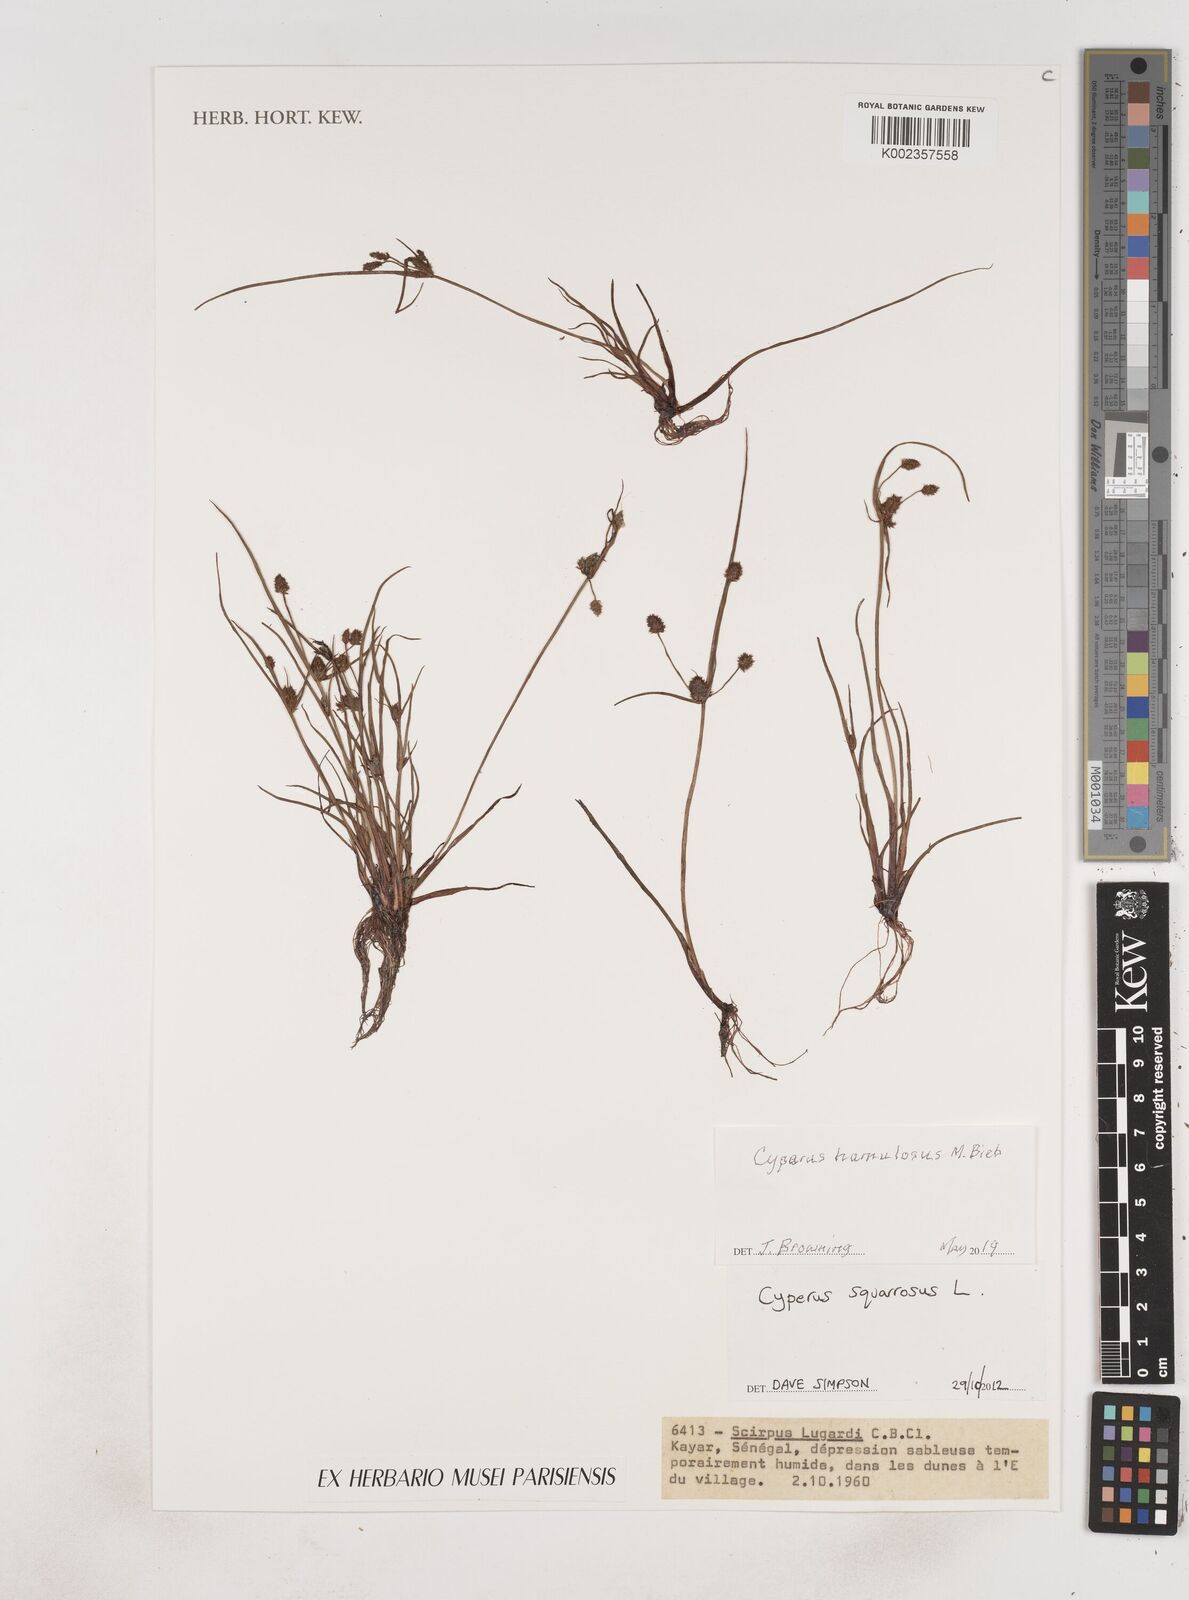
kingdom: Plantae
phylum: Tracheophyta
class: Liliopsida
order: Poales
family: Cyperaceae
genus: Cyperus
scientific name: Cyperus hamulosus
